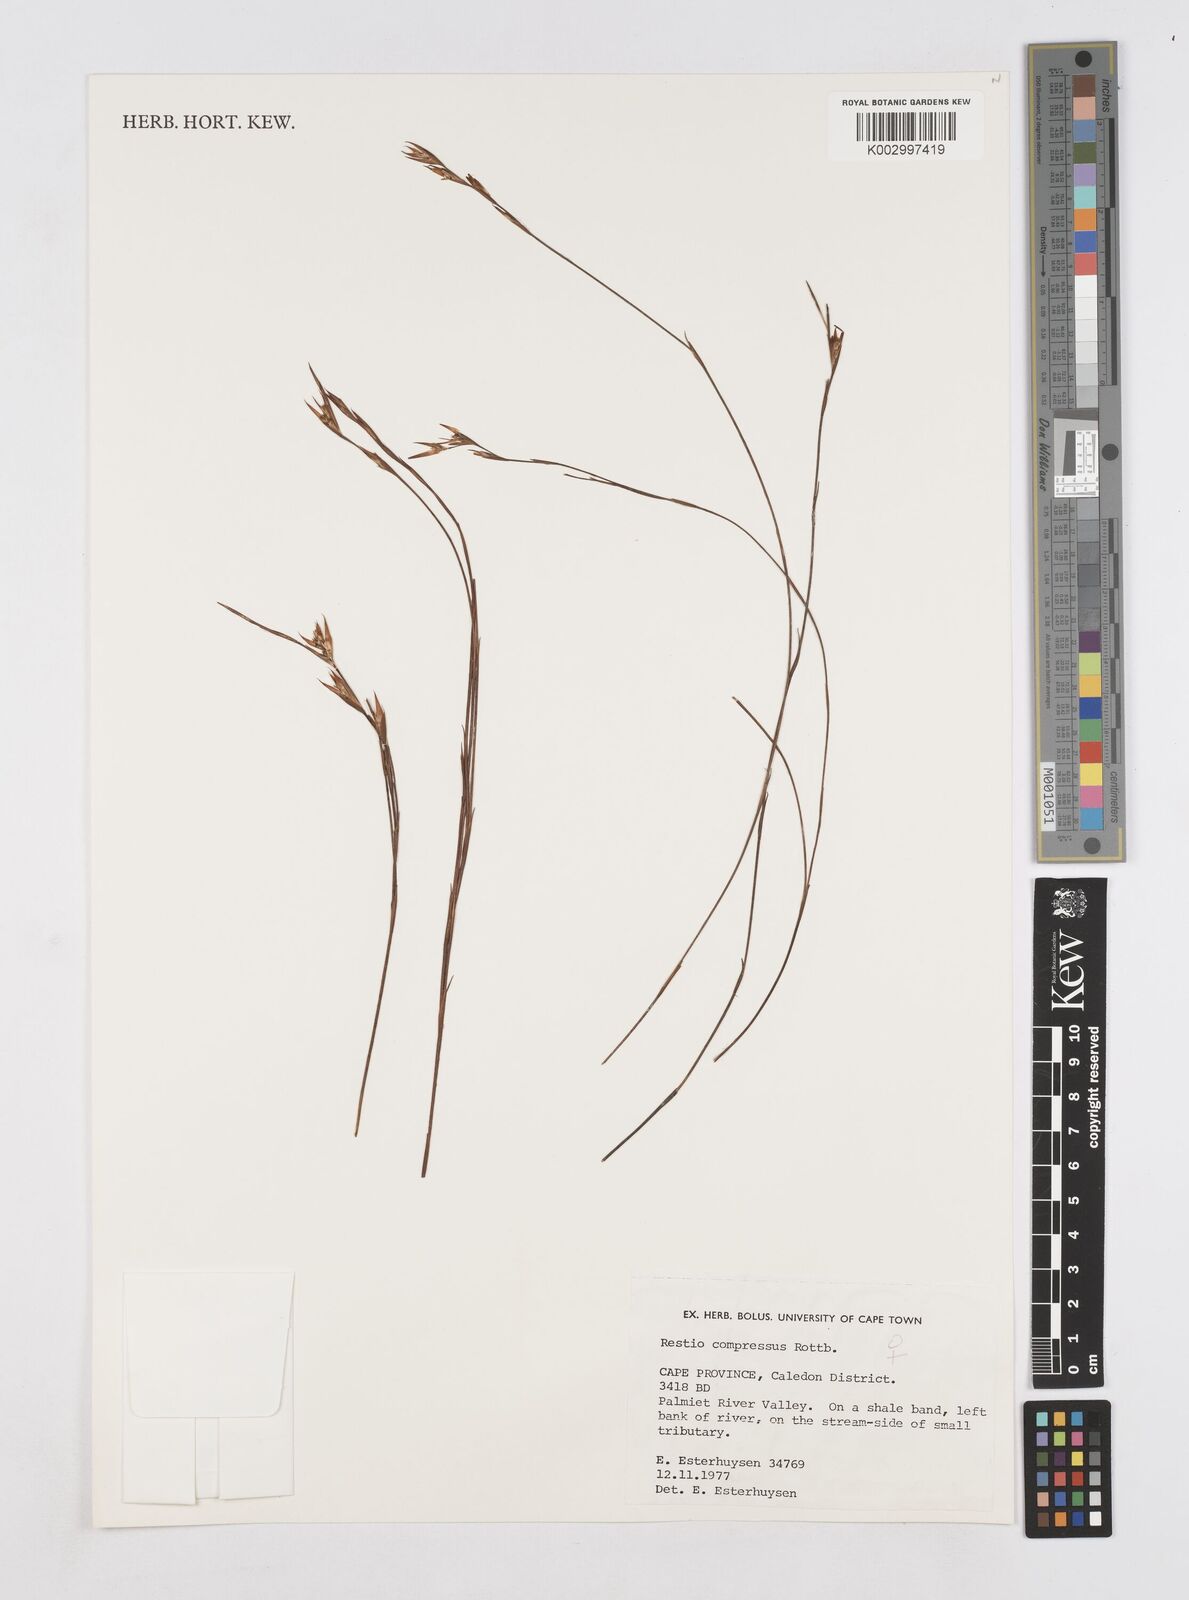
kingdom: Plantae
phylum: Tracheophyta
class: Liliopsida
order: Poales
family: Restionaceae
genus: Platycaulos
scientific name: Platycaulos compressus
